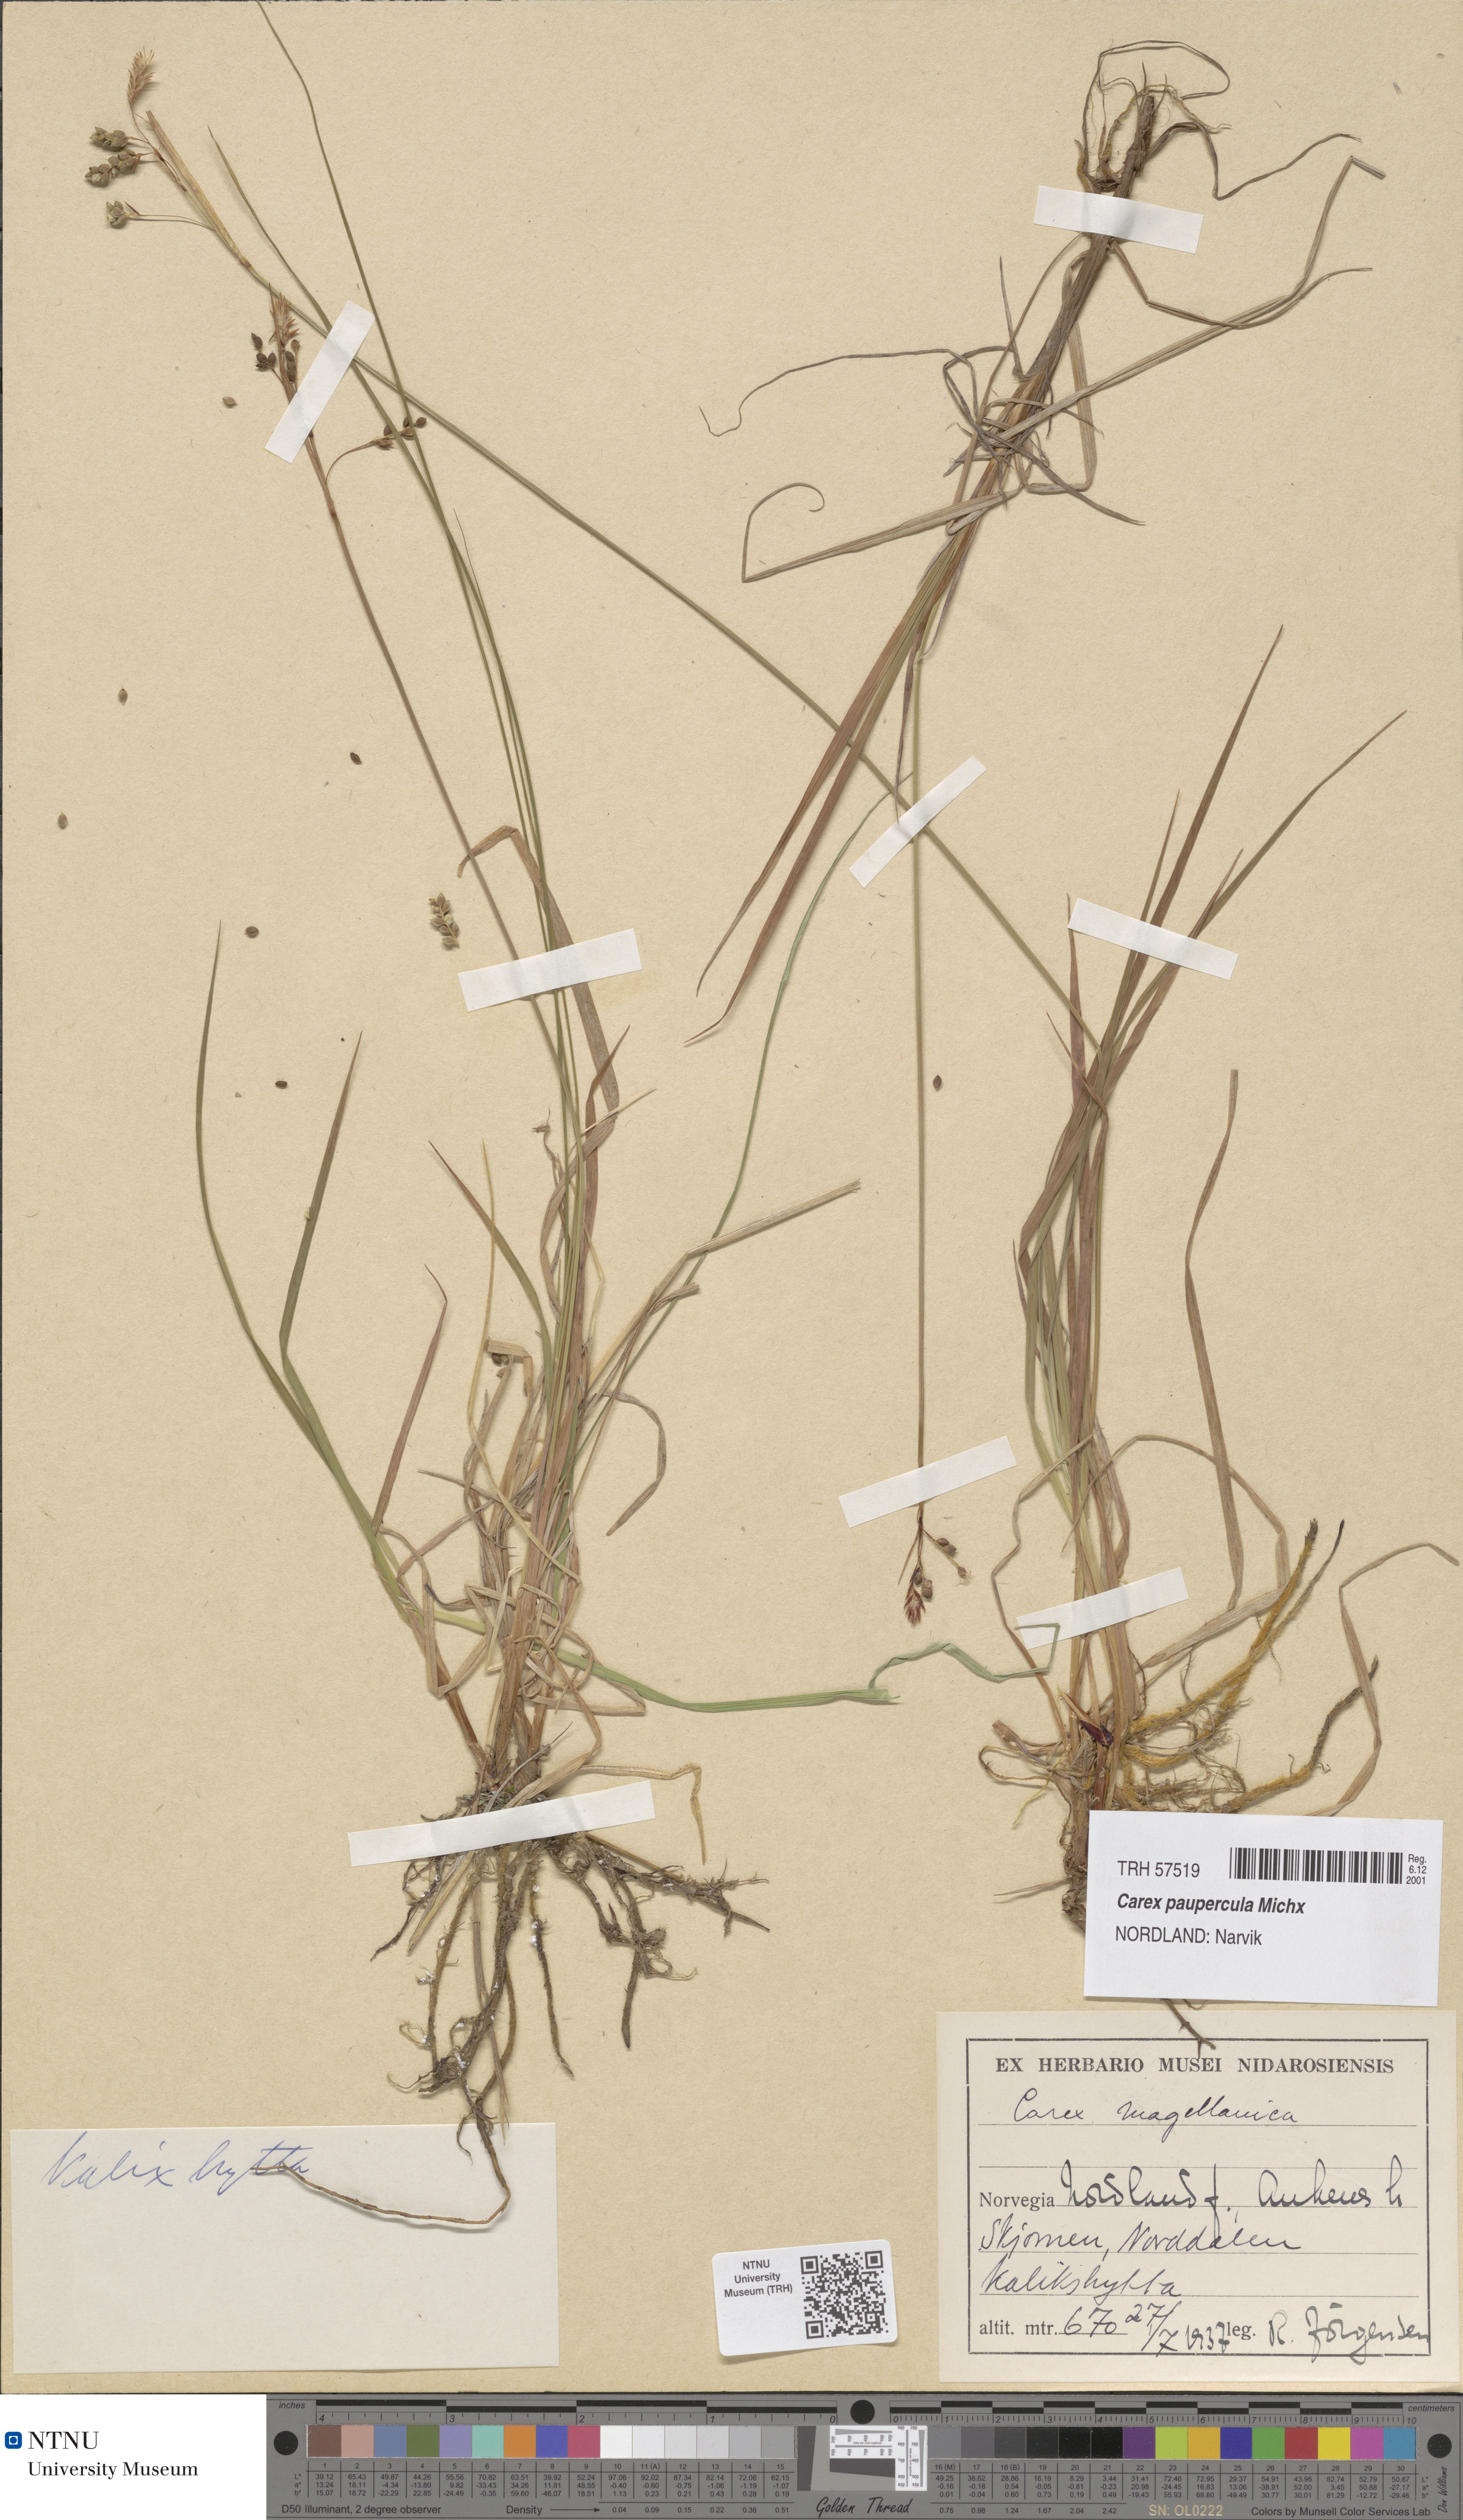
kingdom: Plantae
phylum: Tracheophyta
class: Liliopsida
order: Poales
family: Cyperaceae
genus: Carex
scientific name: Carex magellanica
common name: Bog sedge
